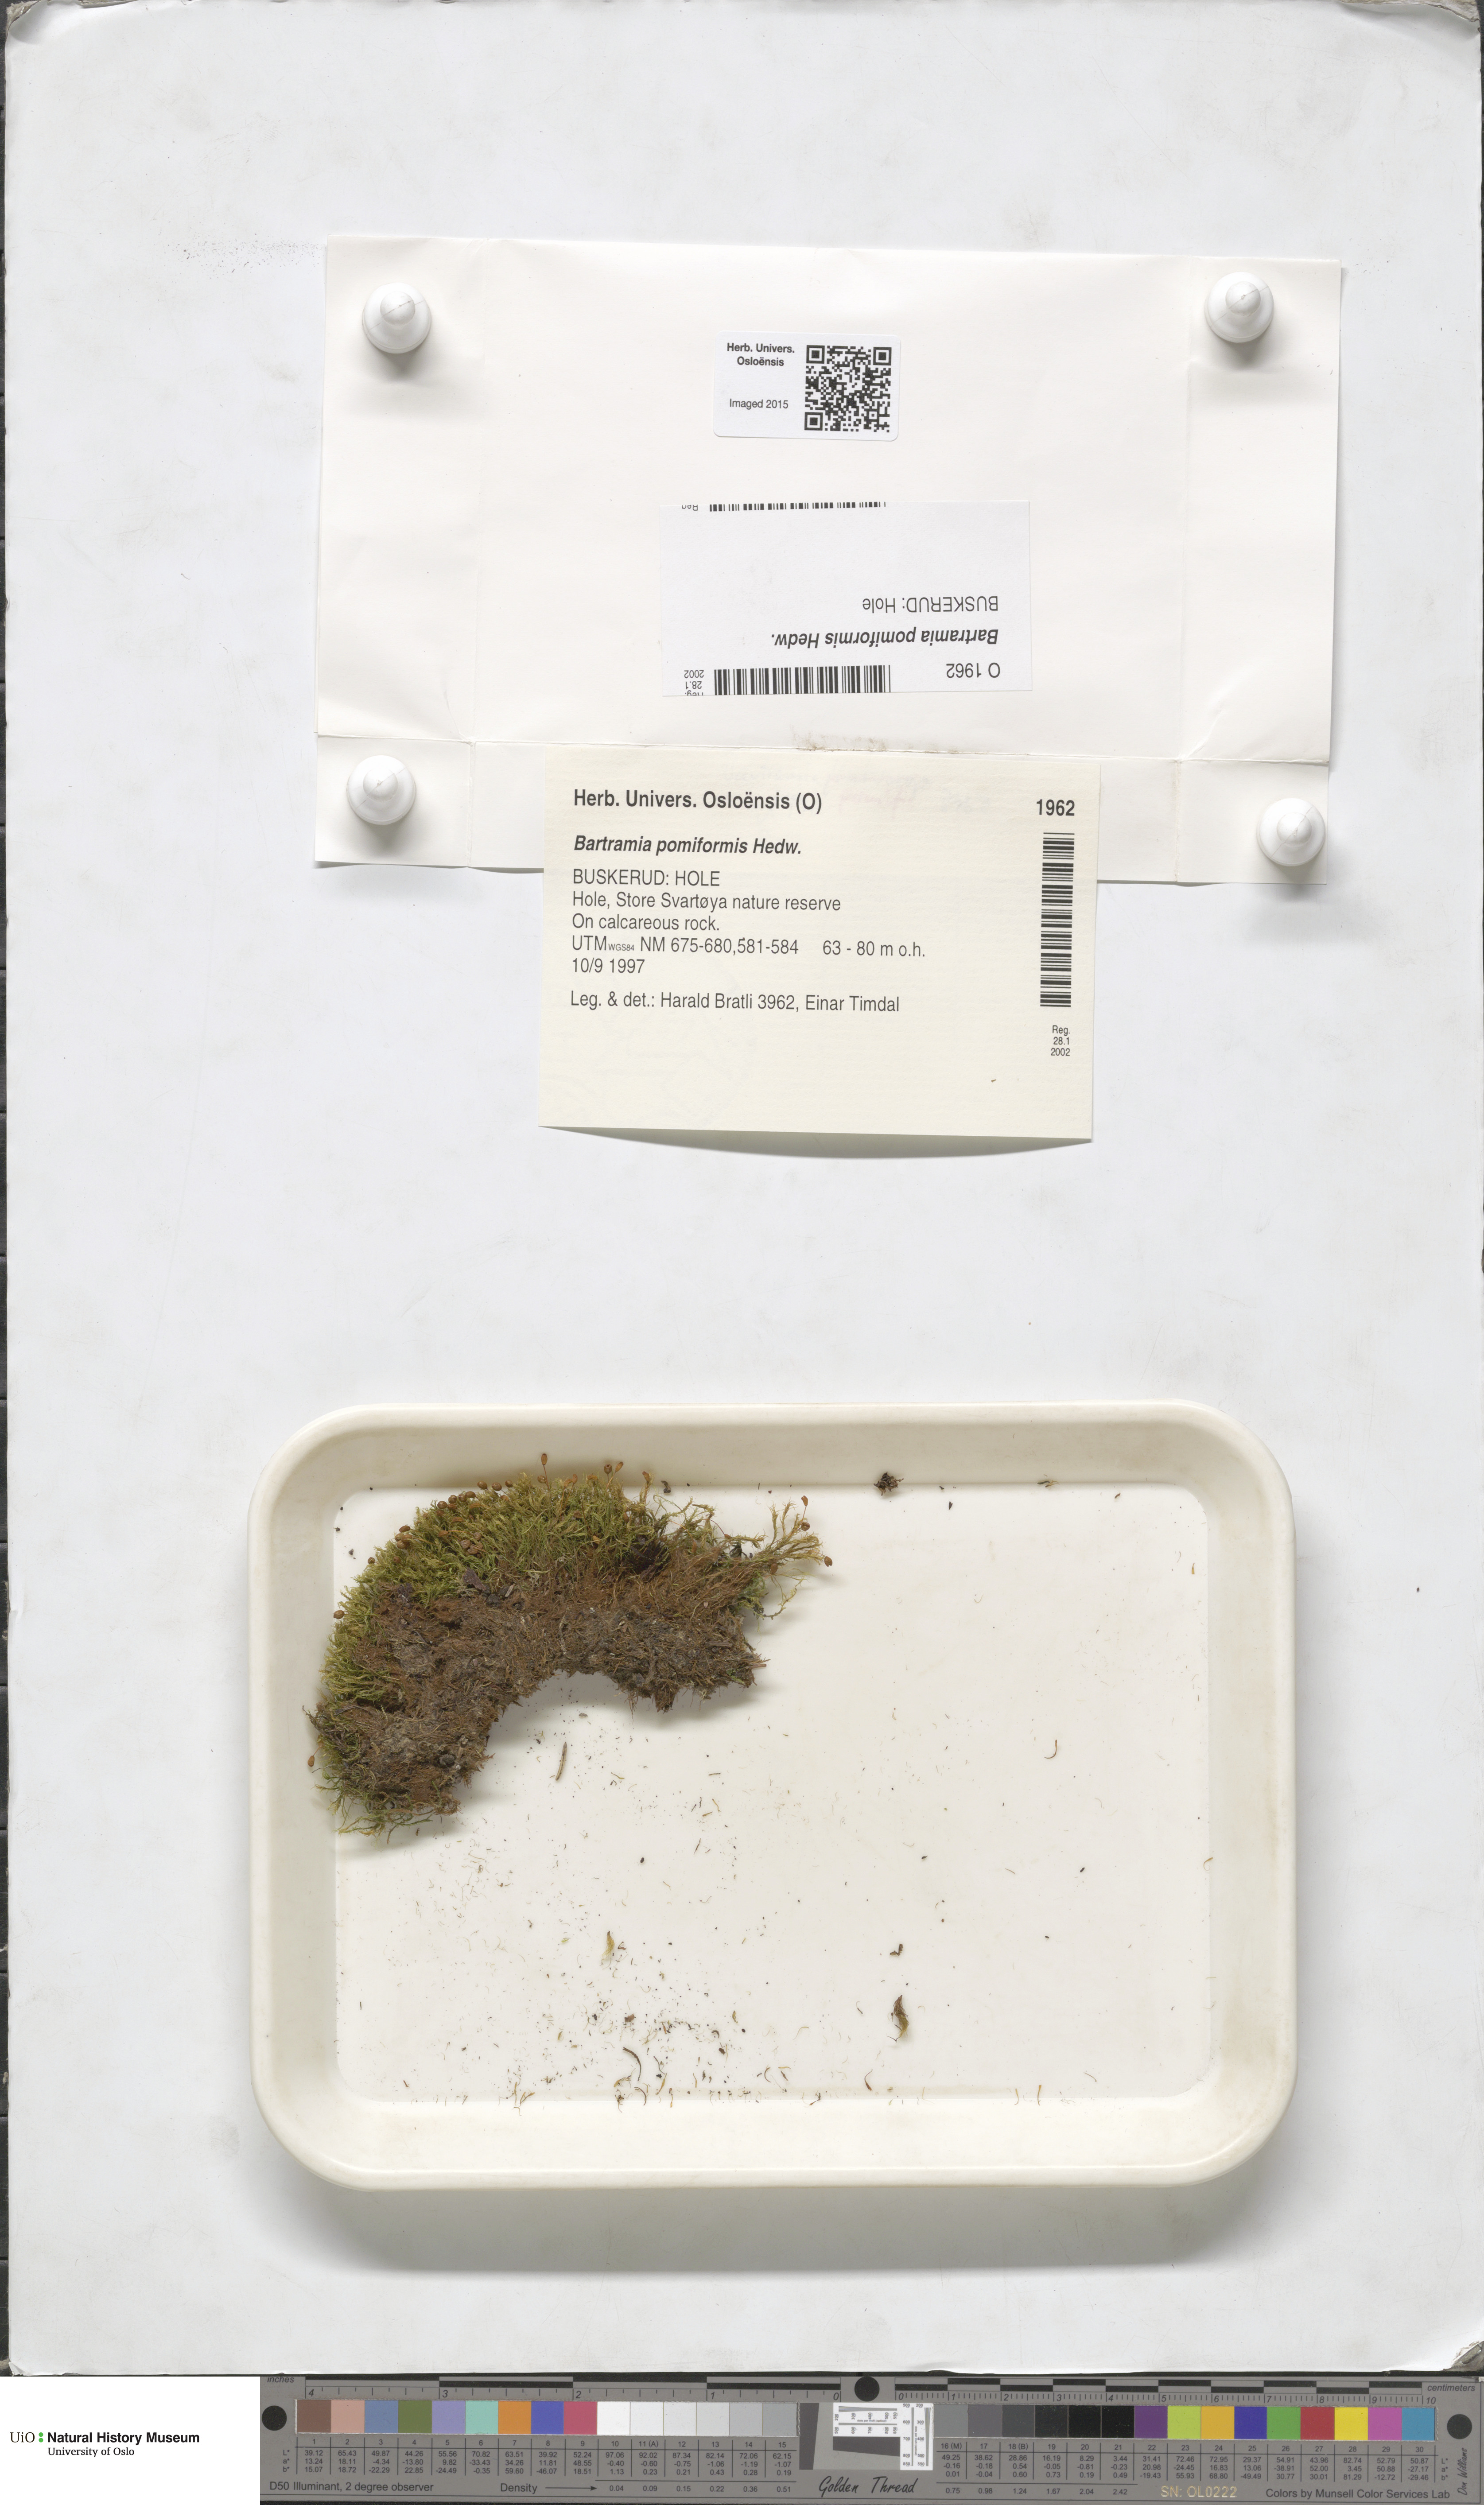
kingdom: Plantae
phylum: Bryophyta
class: Bryopsida
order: Bartramiales
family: Bartramiaceae
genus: Bartramia
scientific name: Bartramia pomiformis
